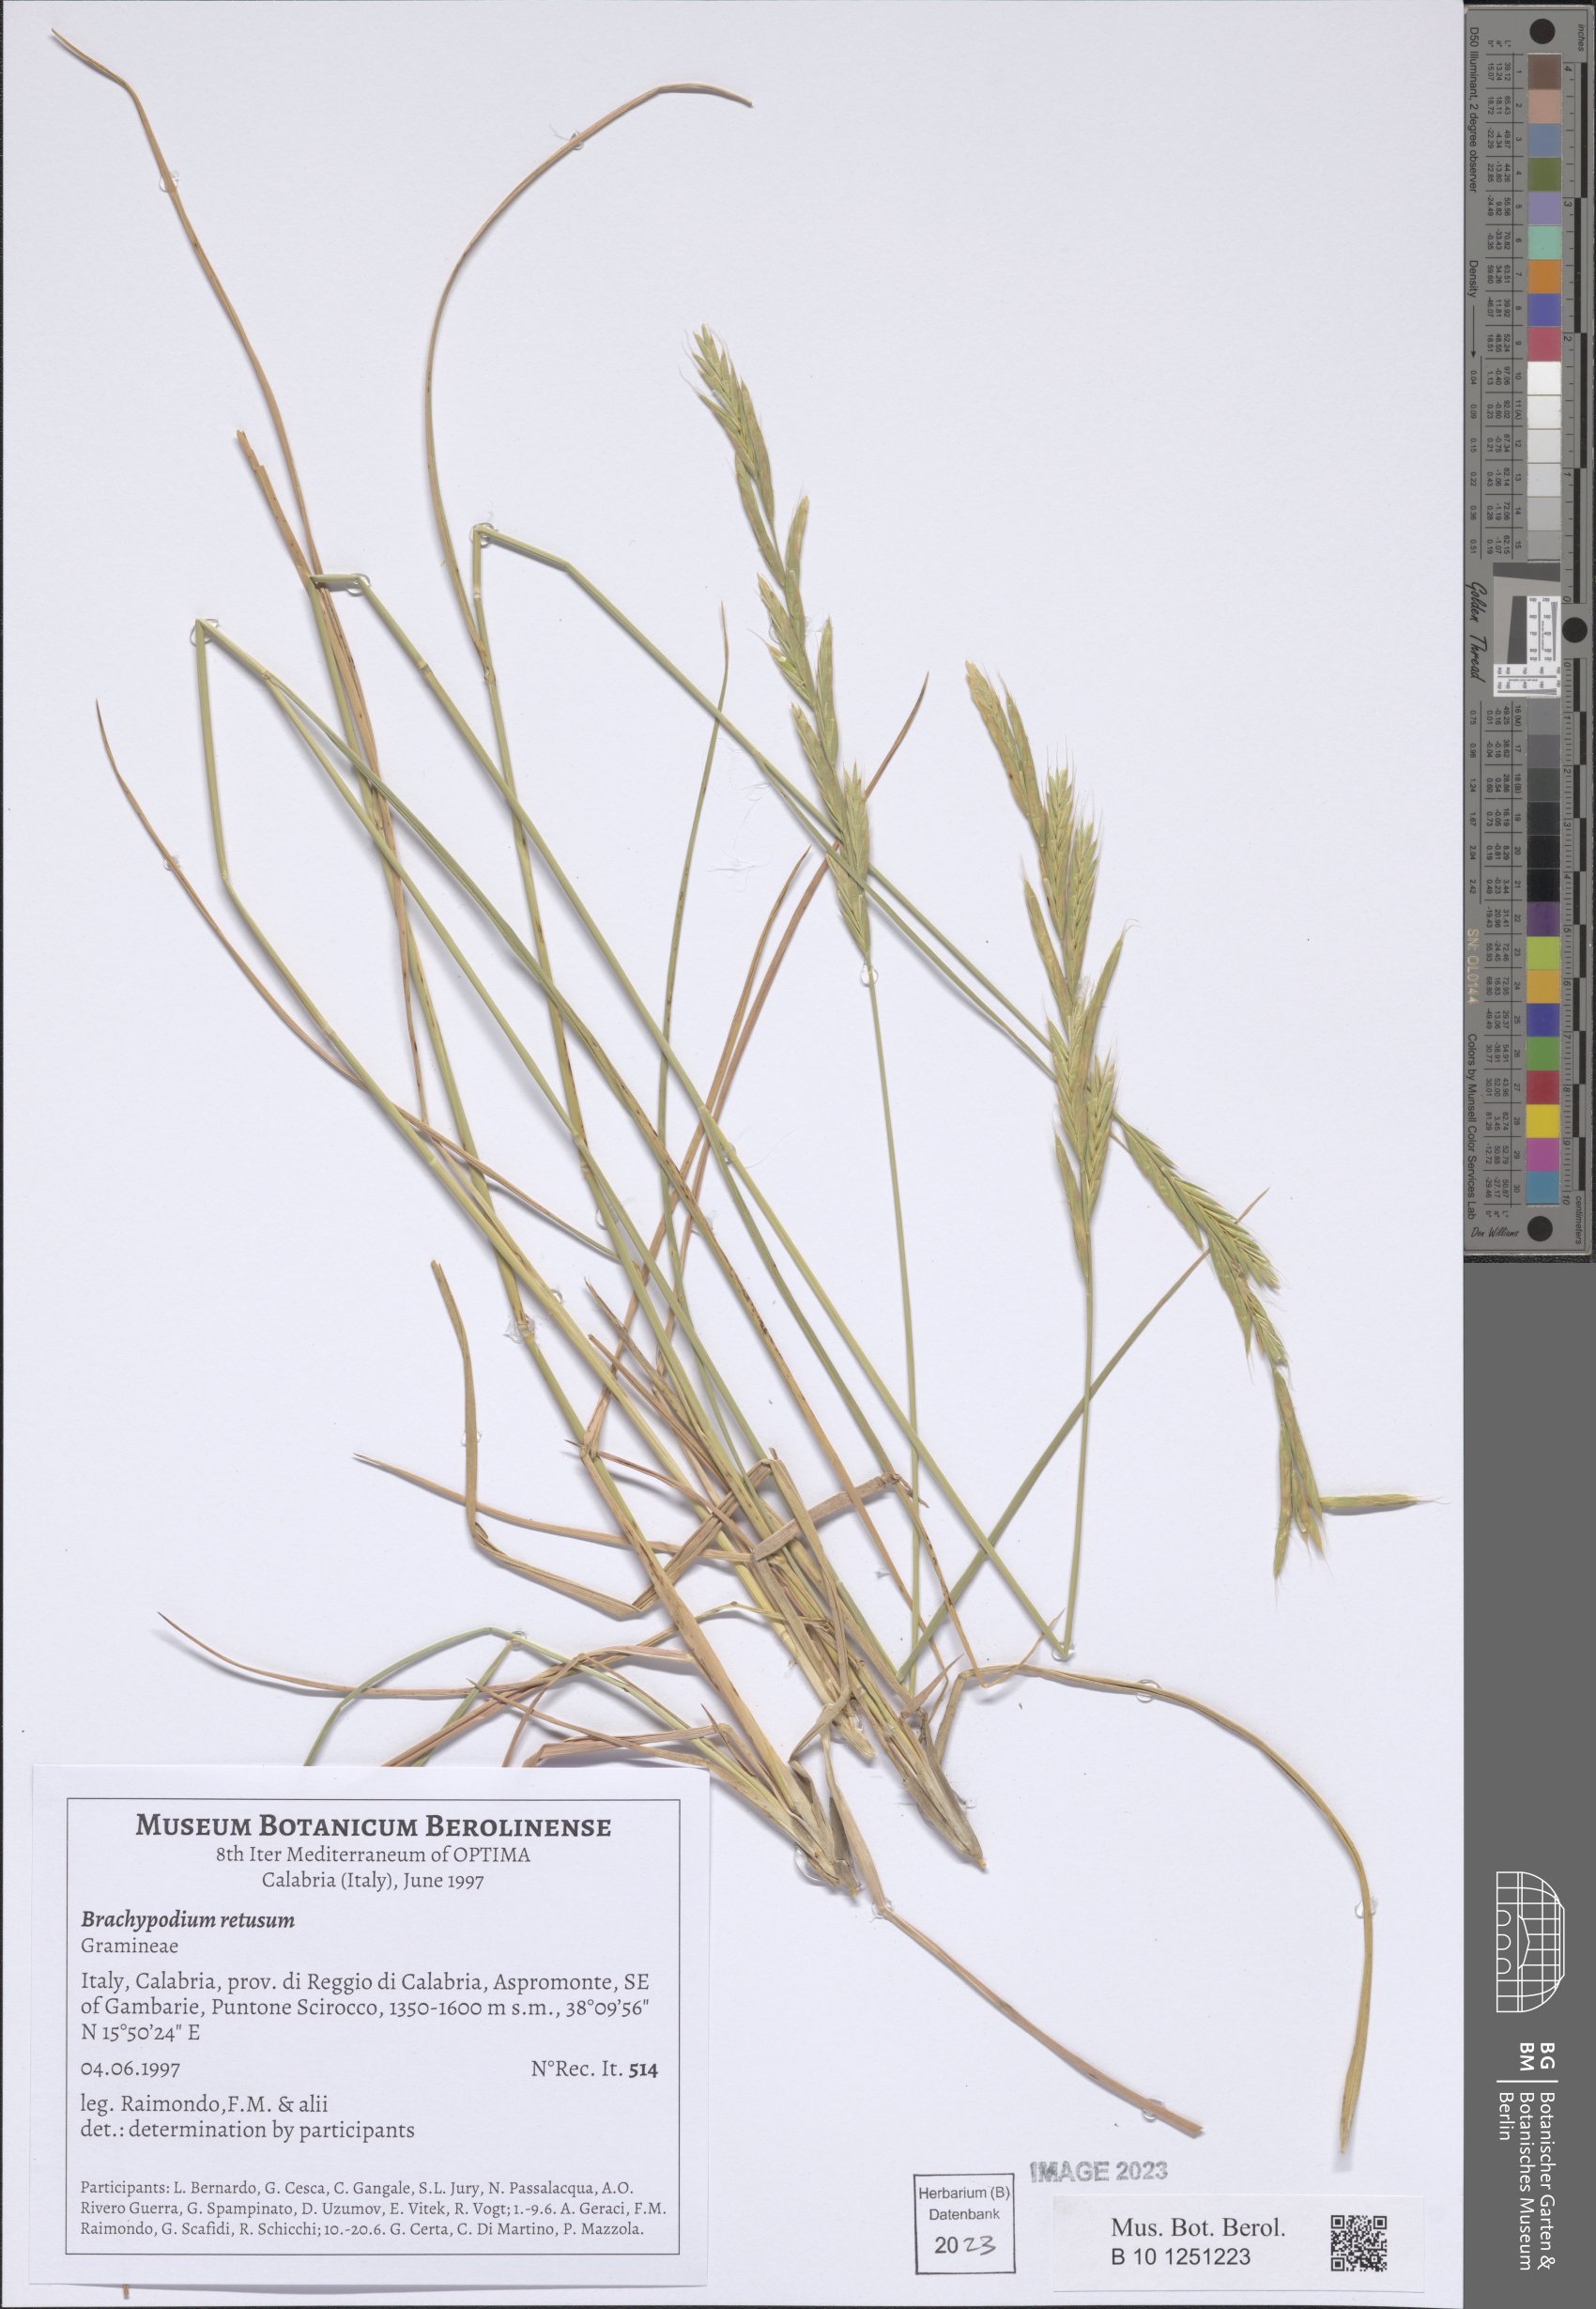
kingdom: Plantae
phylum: Tracheophyta
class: Liliopsida
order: Poales
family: Poaceae
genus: Brachypodium
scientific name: Brachypodium retusum
